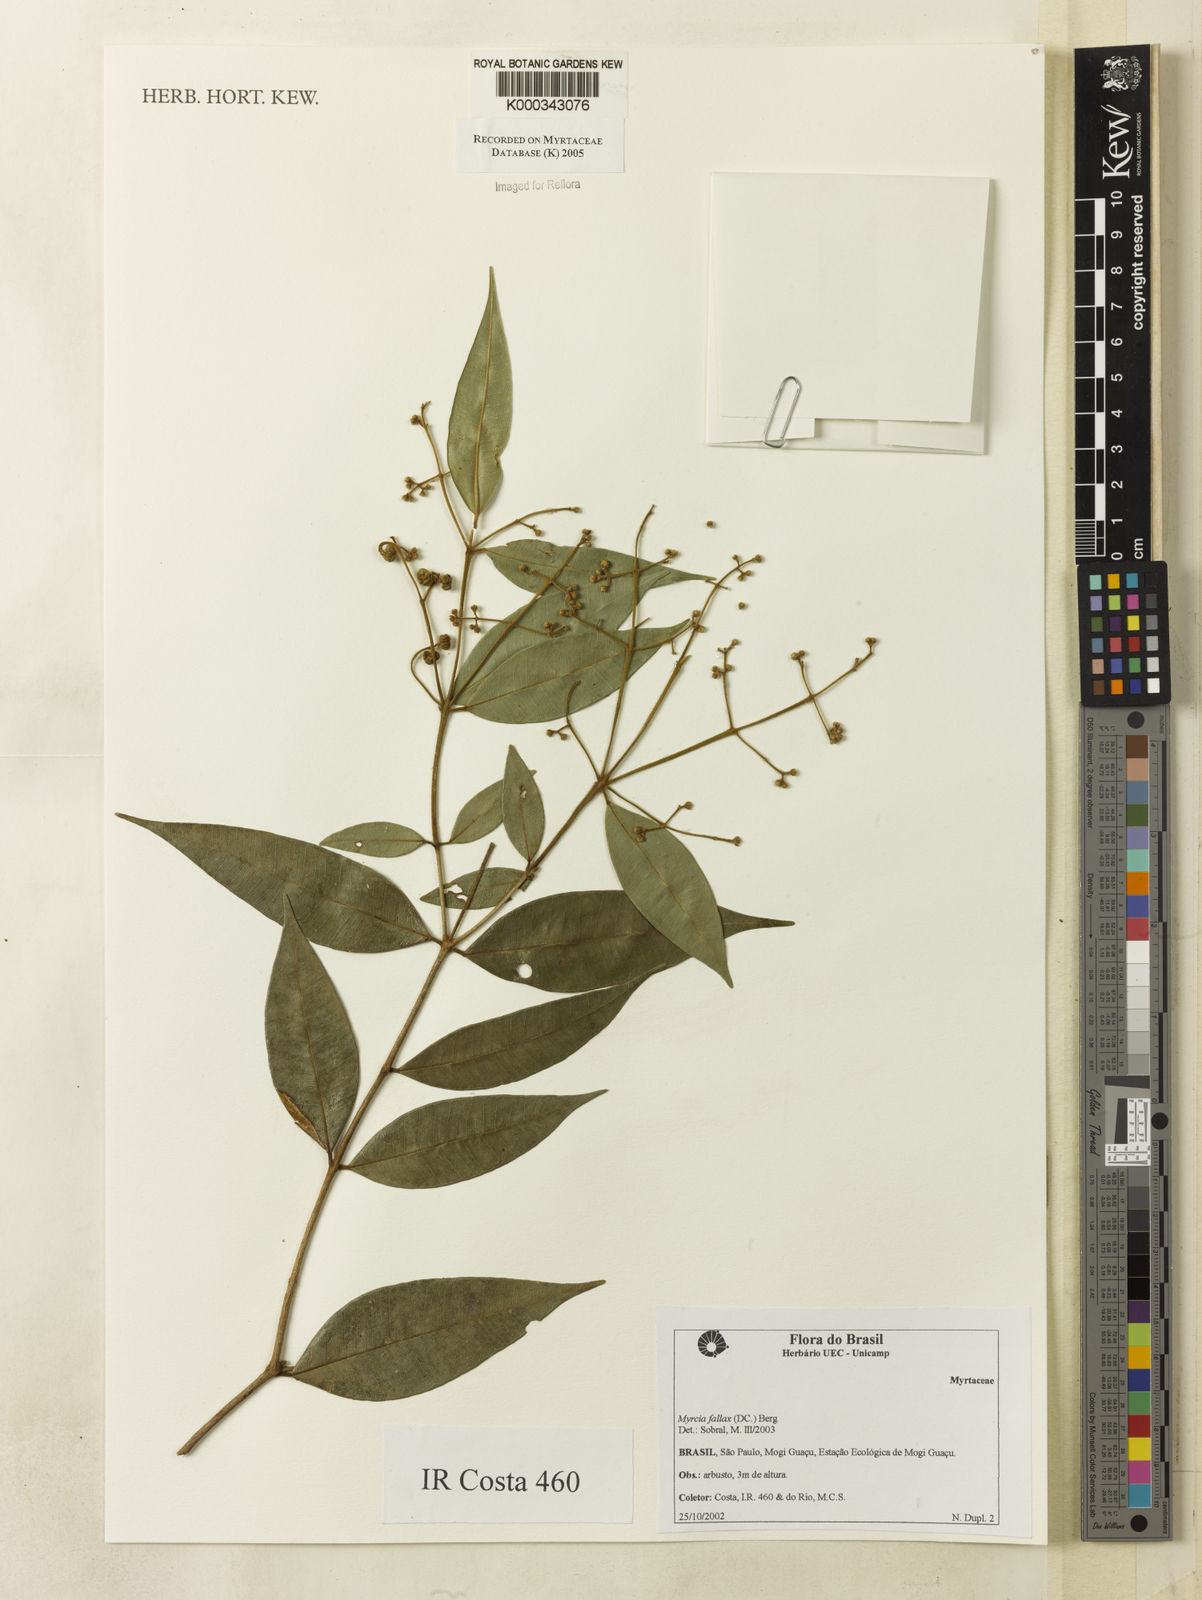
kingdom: Plantae
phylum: Tracheophyta
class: Magnoliopsida
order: Myrtales
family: Myrtaceae
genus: Myrcia
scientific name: Myrcia splendens
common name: Surinam cherry
